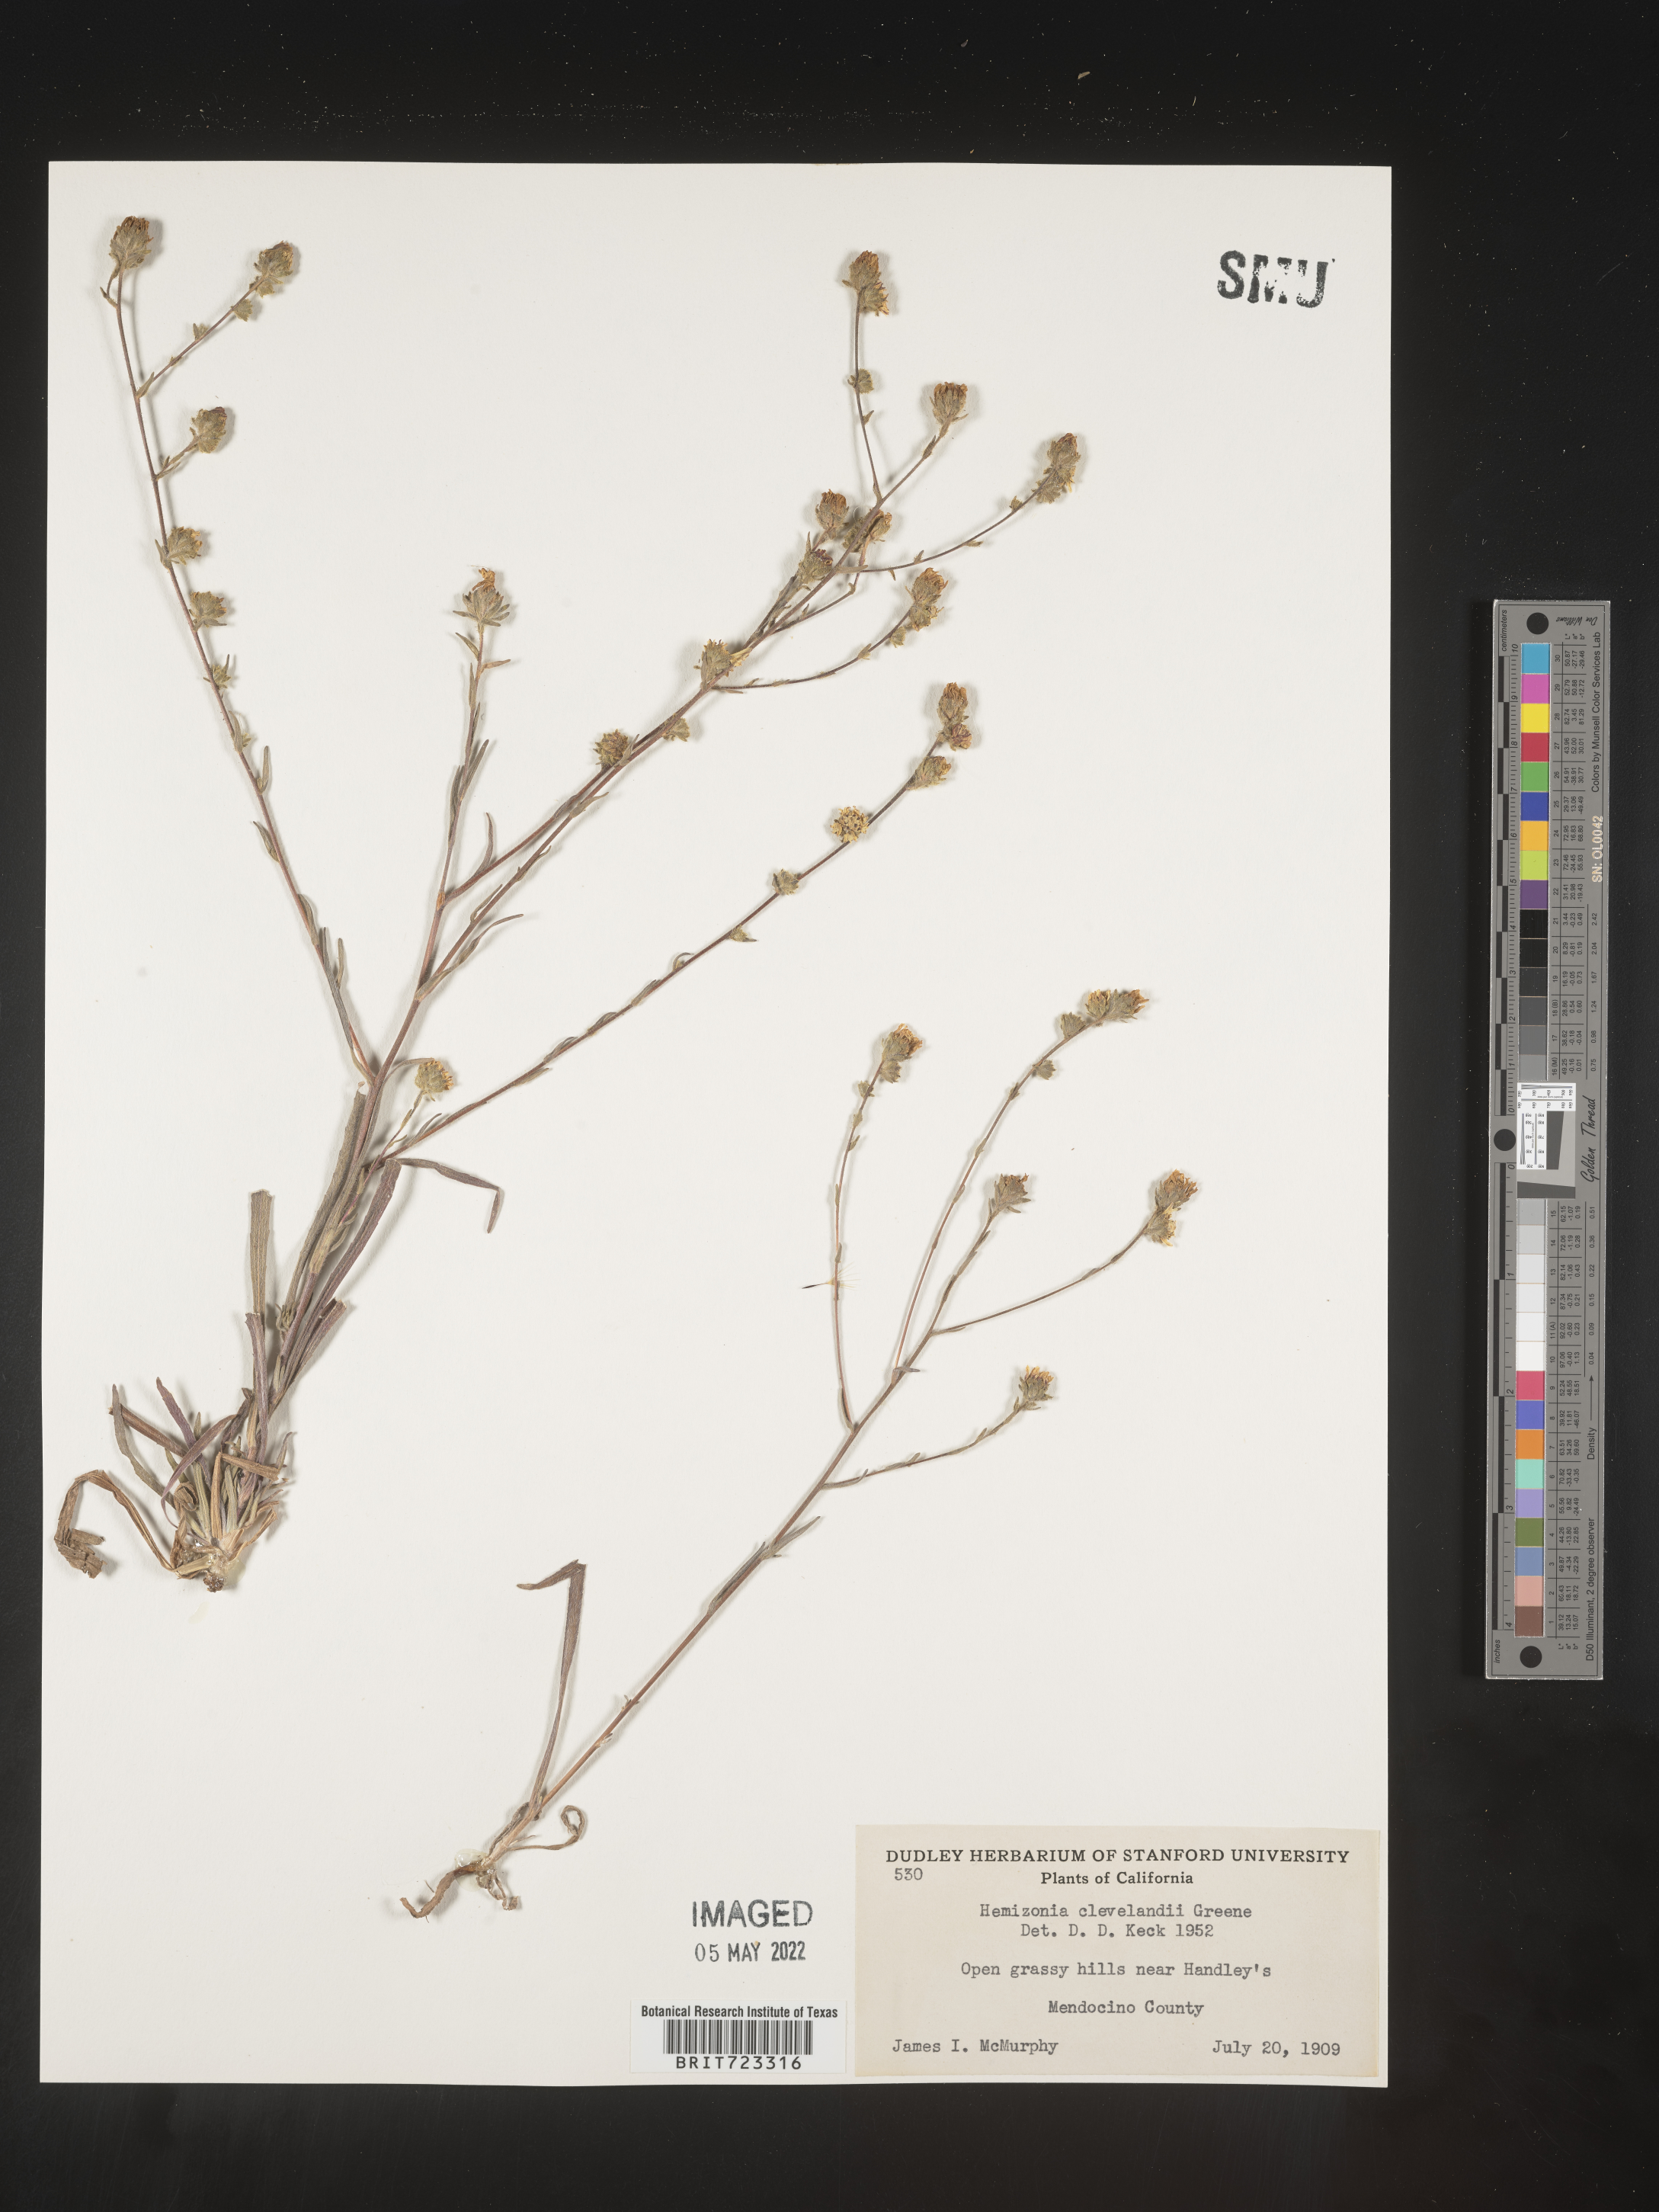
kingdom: Plantae
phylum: Tracheophyta
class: Magnoliopsida
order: Asterales
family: Asteraceae
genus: Hemizonia
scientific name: Hemizonia
